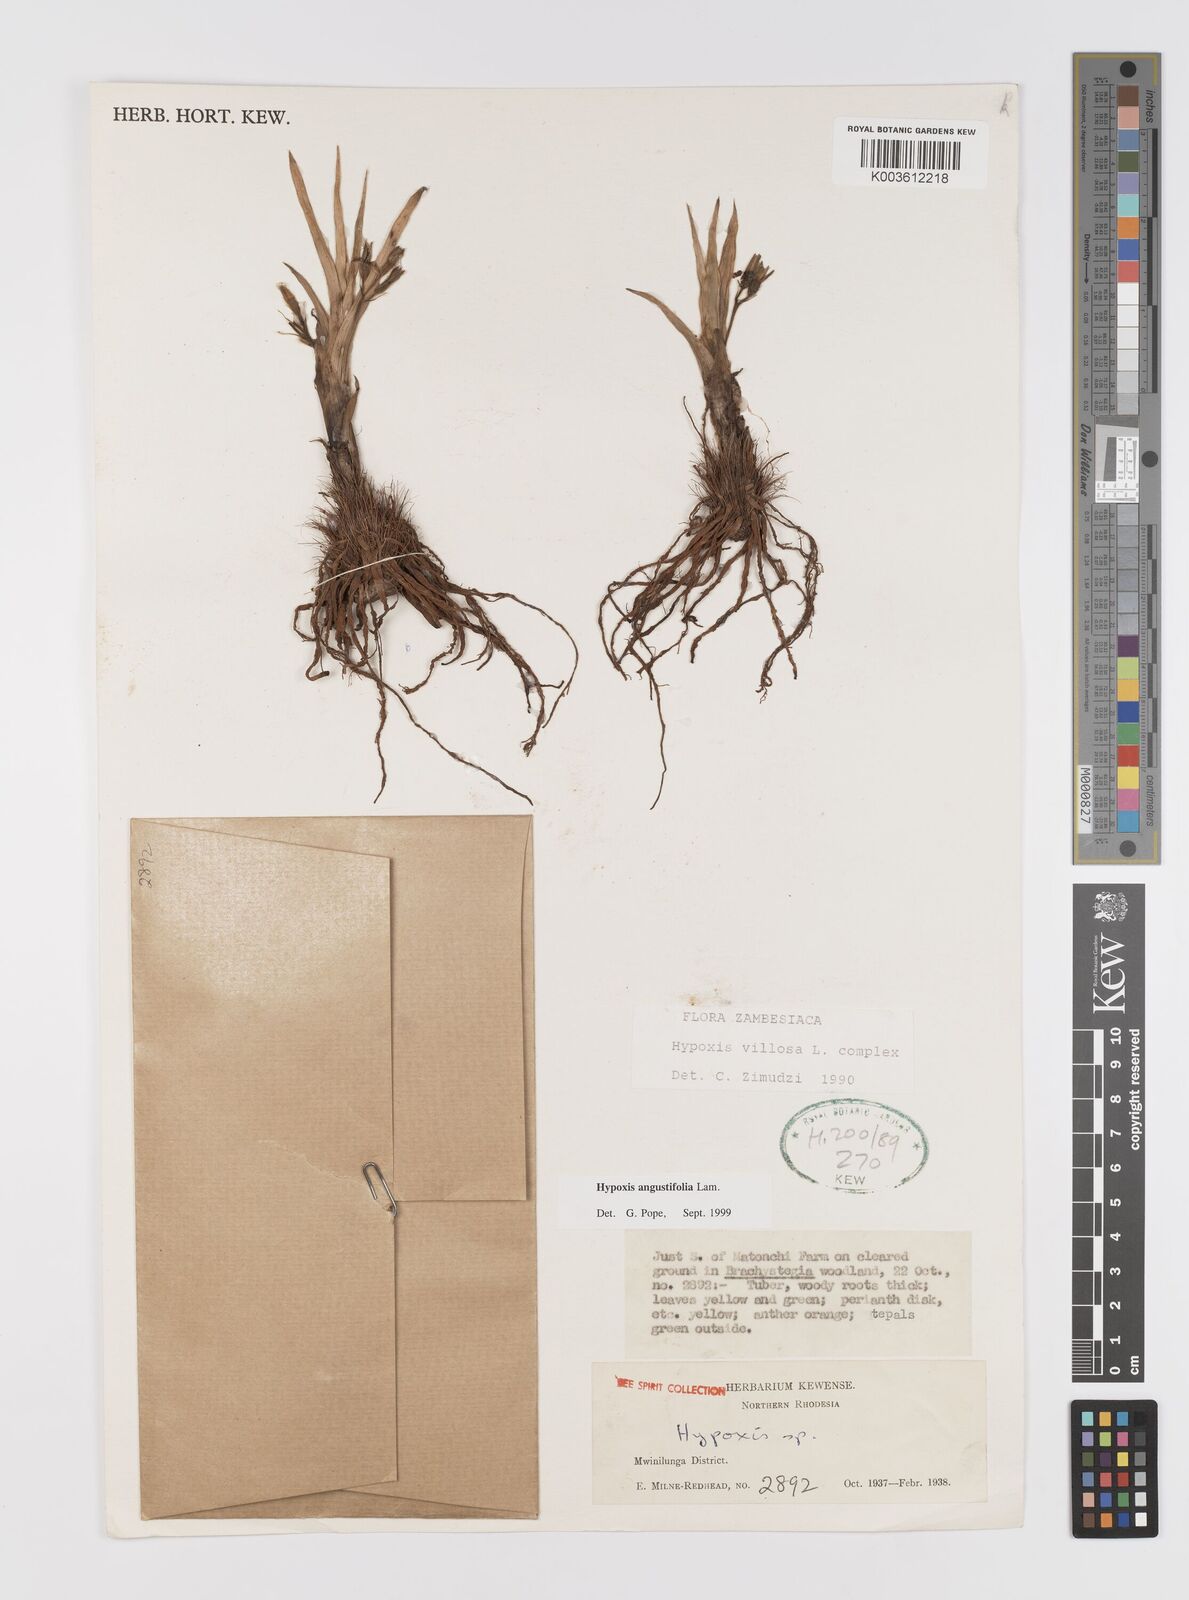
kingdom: Plantae
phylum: Tracheophyta
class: Liliopsida
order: Asparagales
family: Hypoxidaceae
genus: Hypoxis
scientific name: Hypoxis angustifolia
